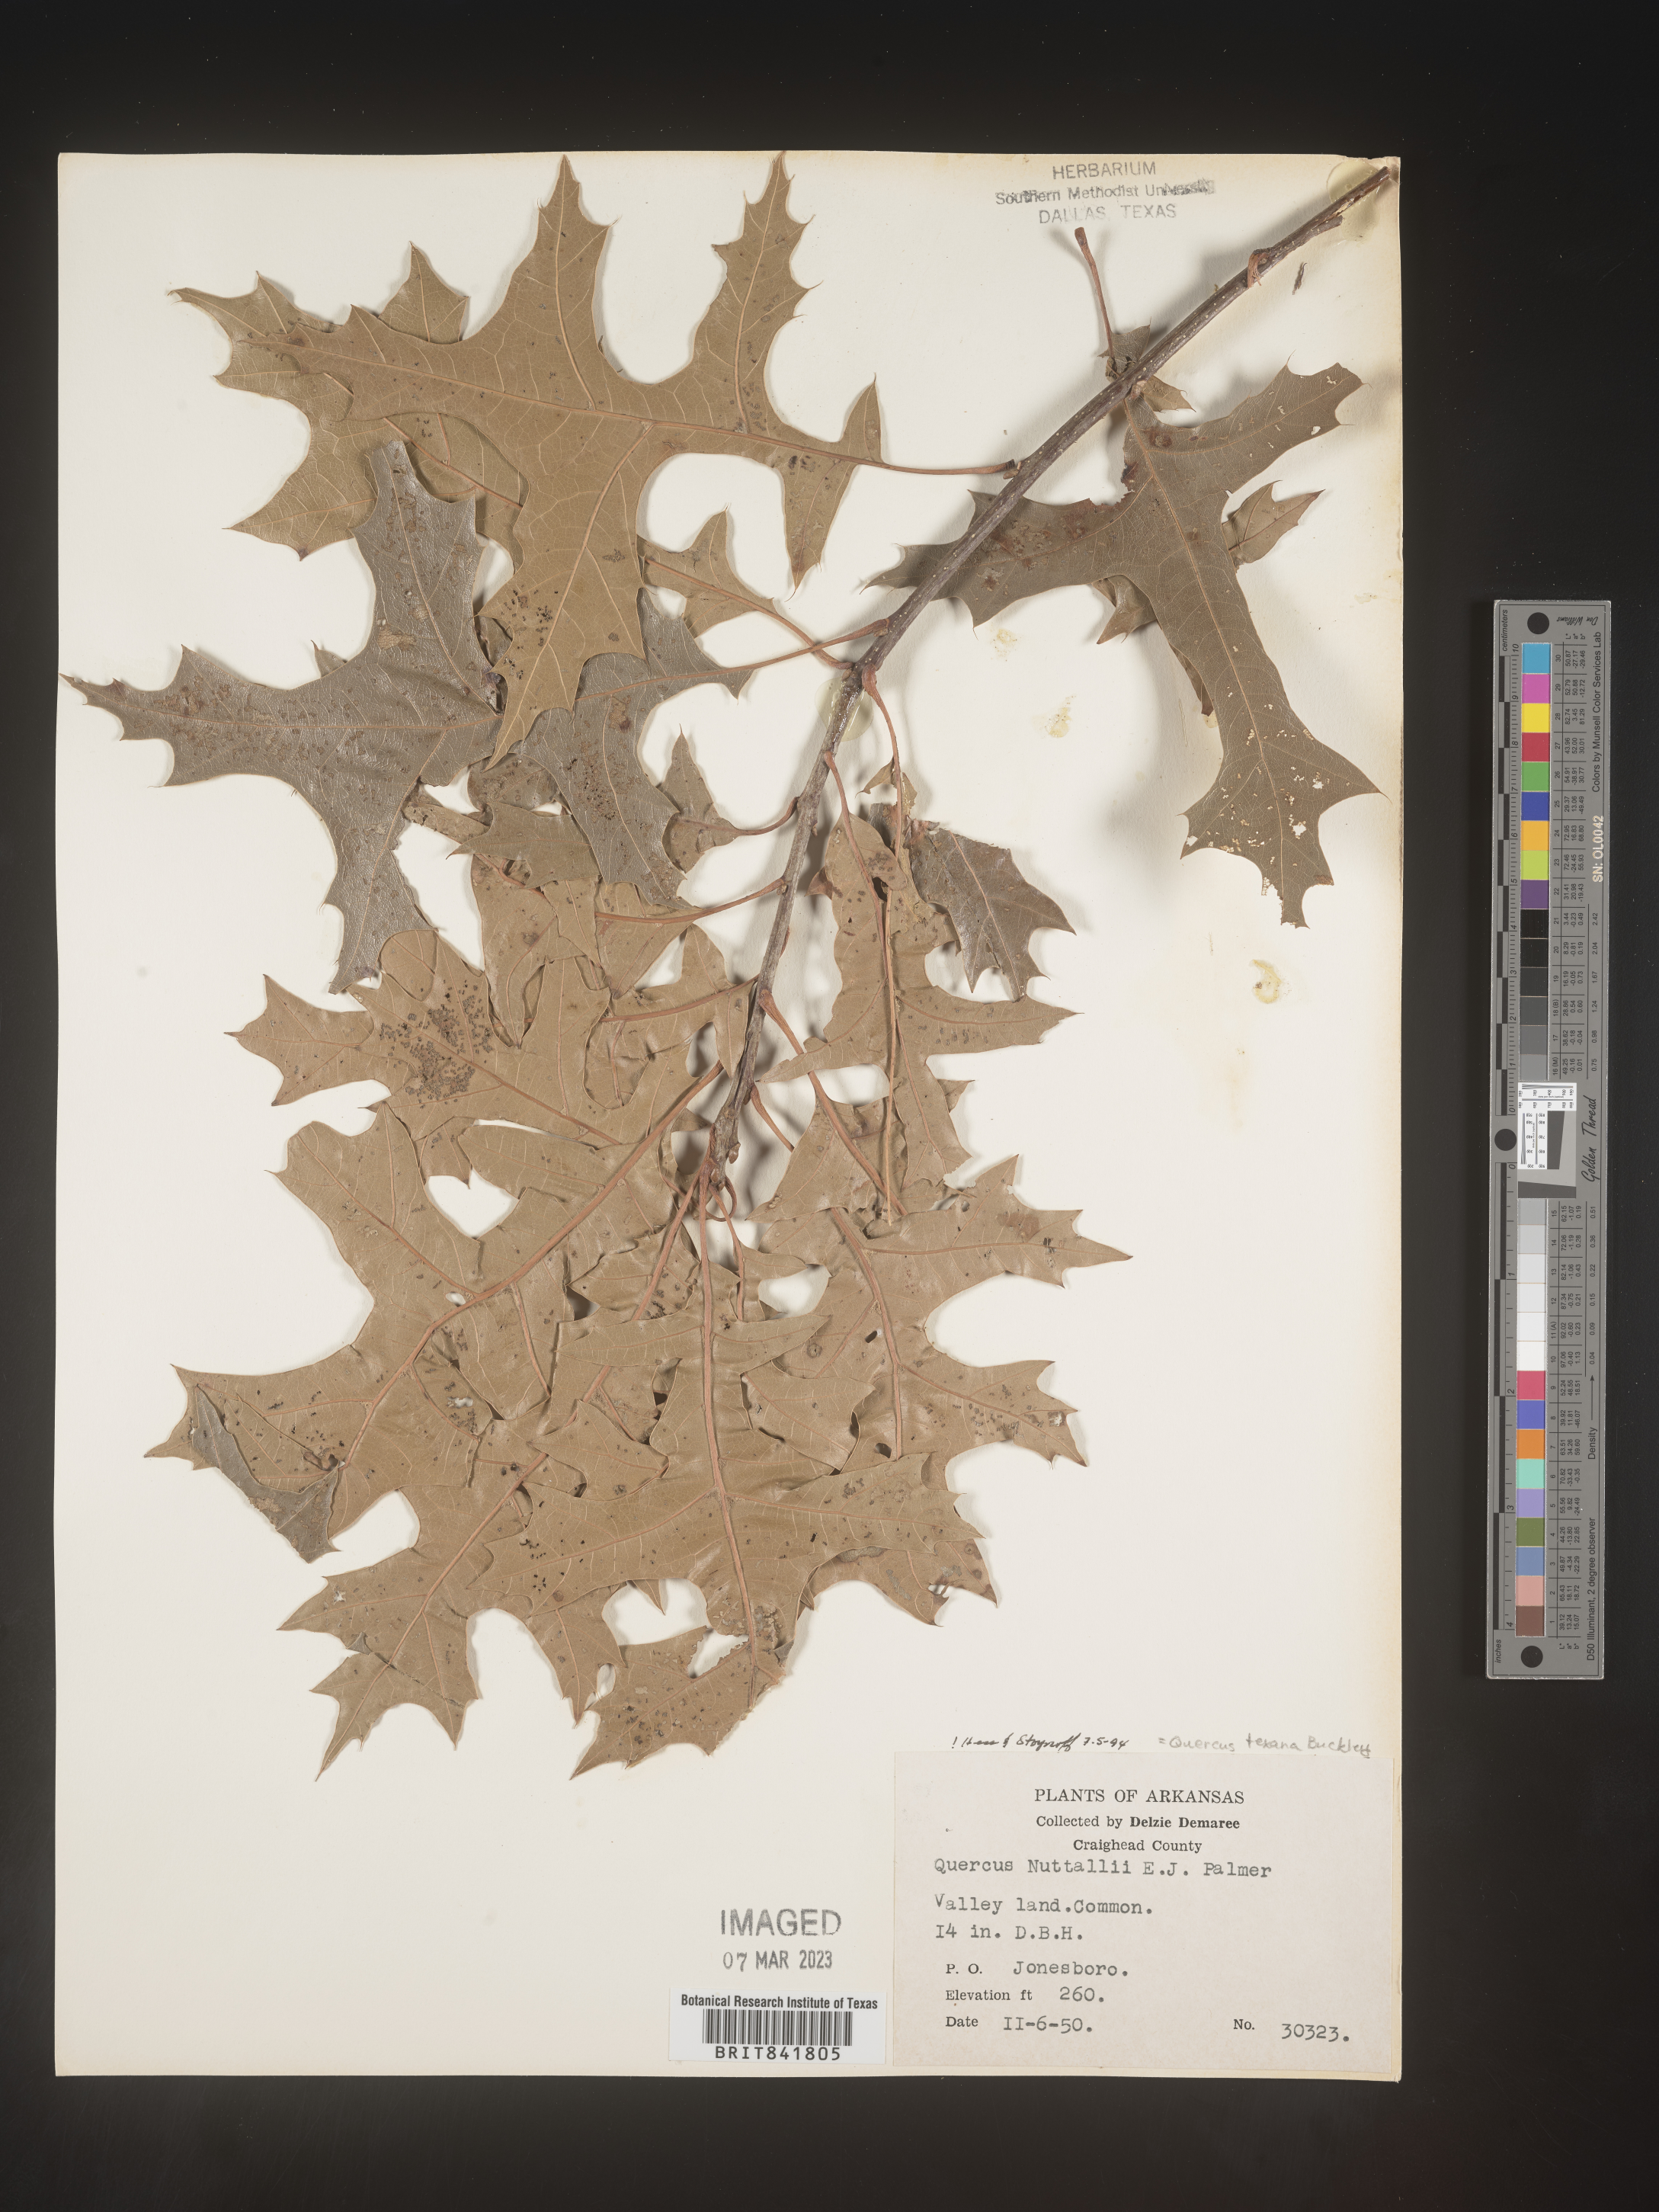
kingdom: Plantae
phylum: Tracheophyta
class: Magnoliopsida
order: Fagales
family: Fagaceae
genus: Quercus
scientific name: Quercus texana
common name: Nuttall oak
